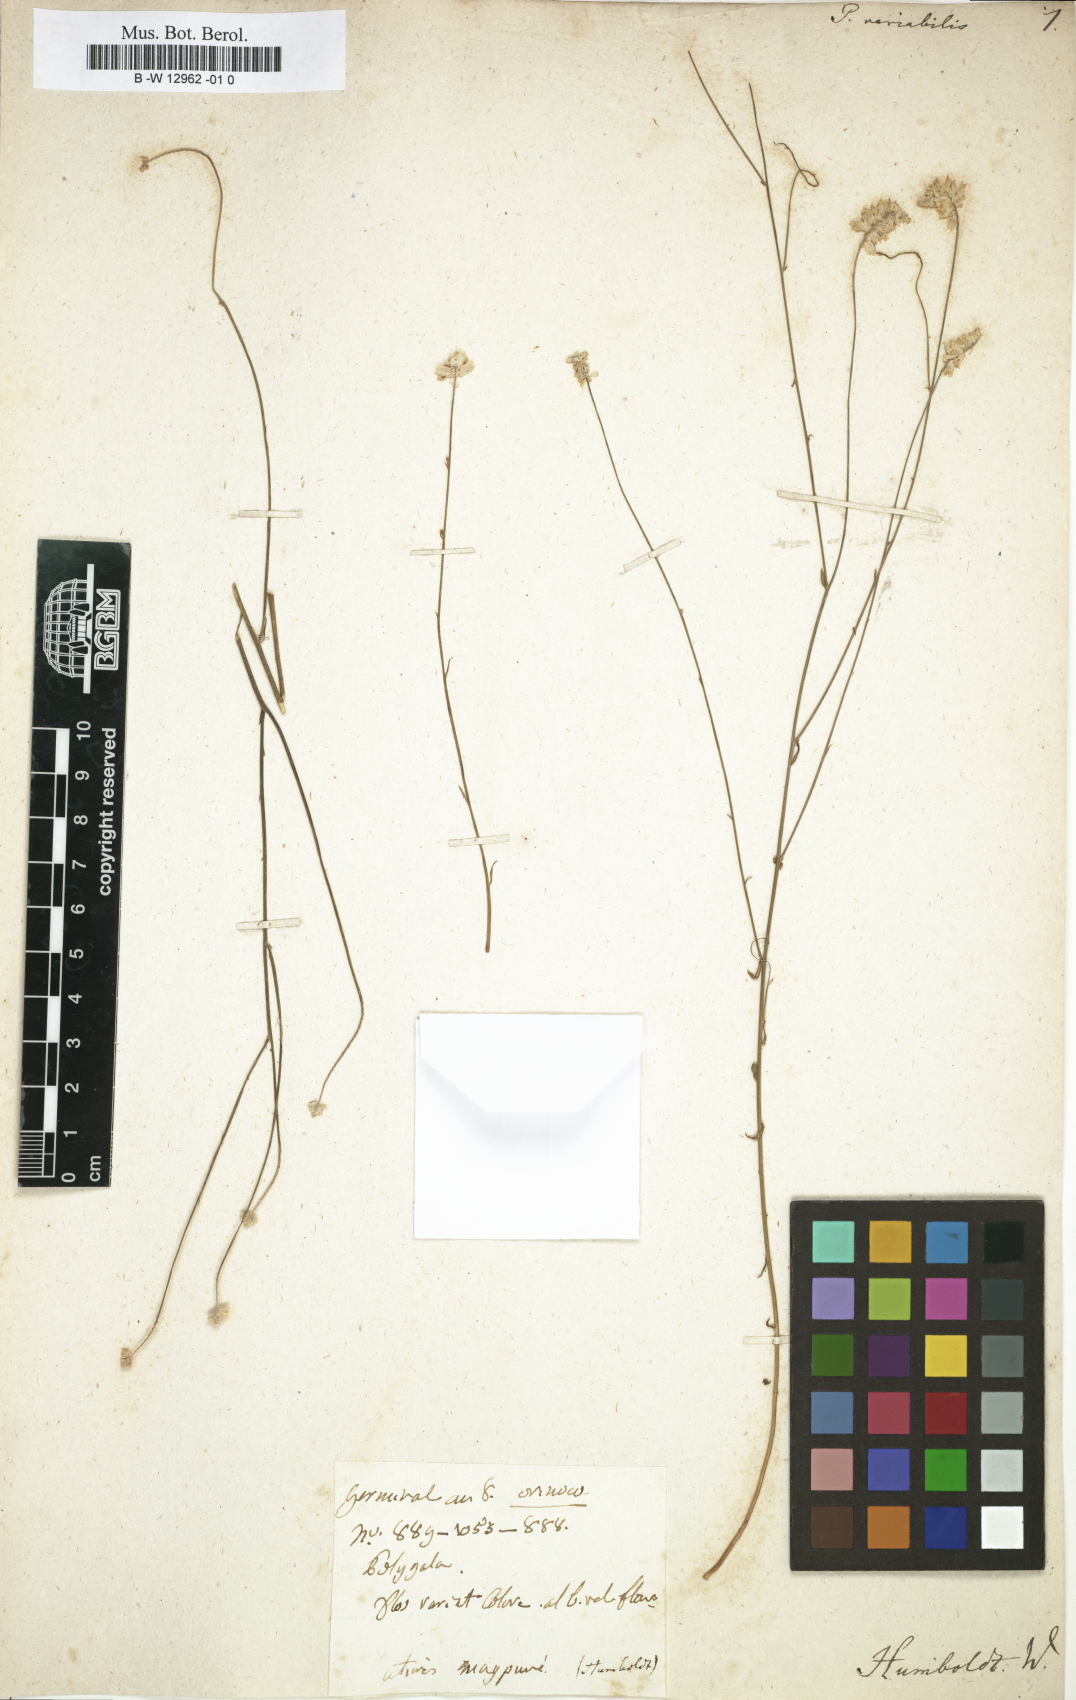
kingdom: Plantae
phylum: Tracheophyta
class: Magnoliopsida
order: Fabales
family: Polygalaceae
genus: Polygala
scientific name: Polygala trichosperma
